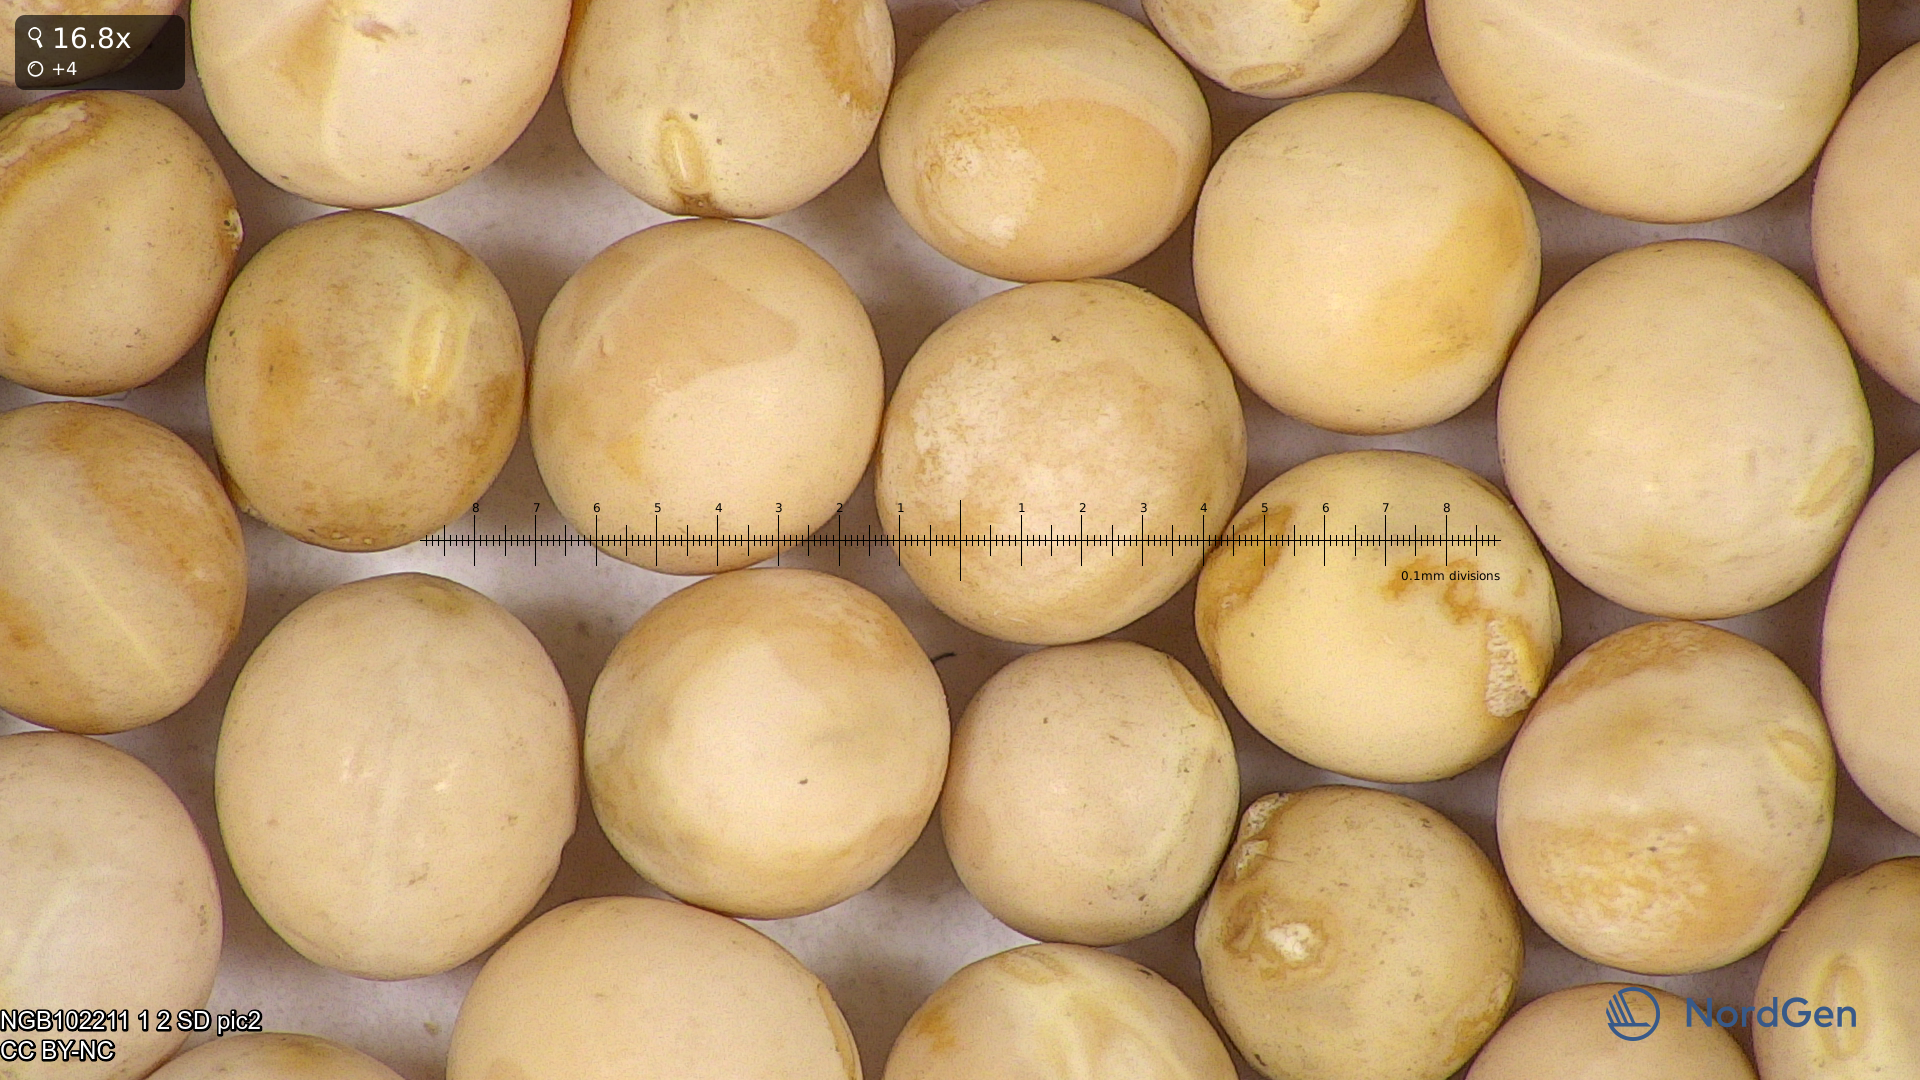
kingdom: Plantae
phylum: Tracheophyta
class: Magnoliopsida
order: Fabales
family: Fabaceae
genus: Lathyrus
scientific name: Lathyrus oleraceus
